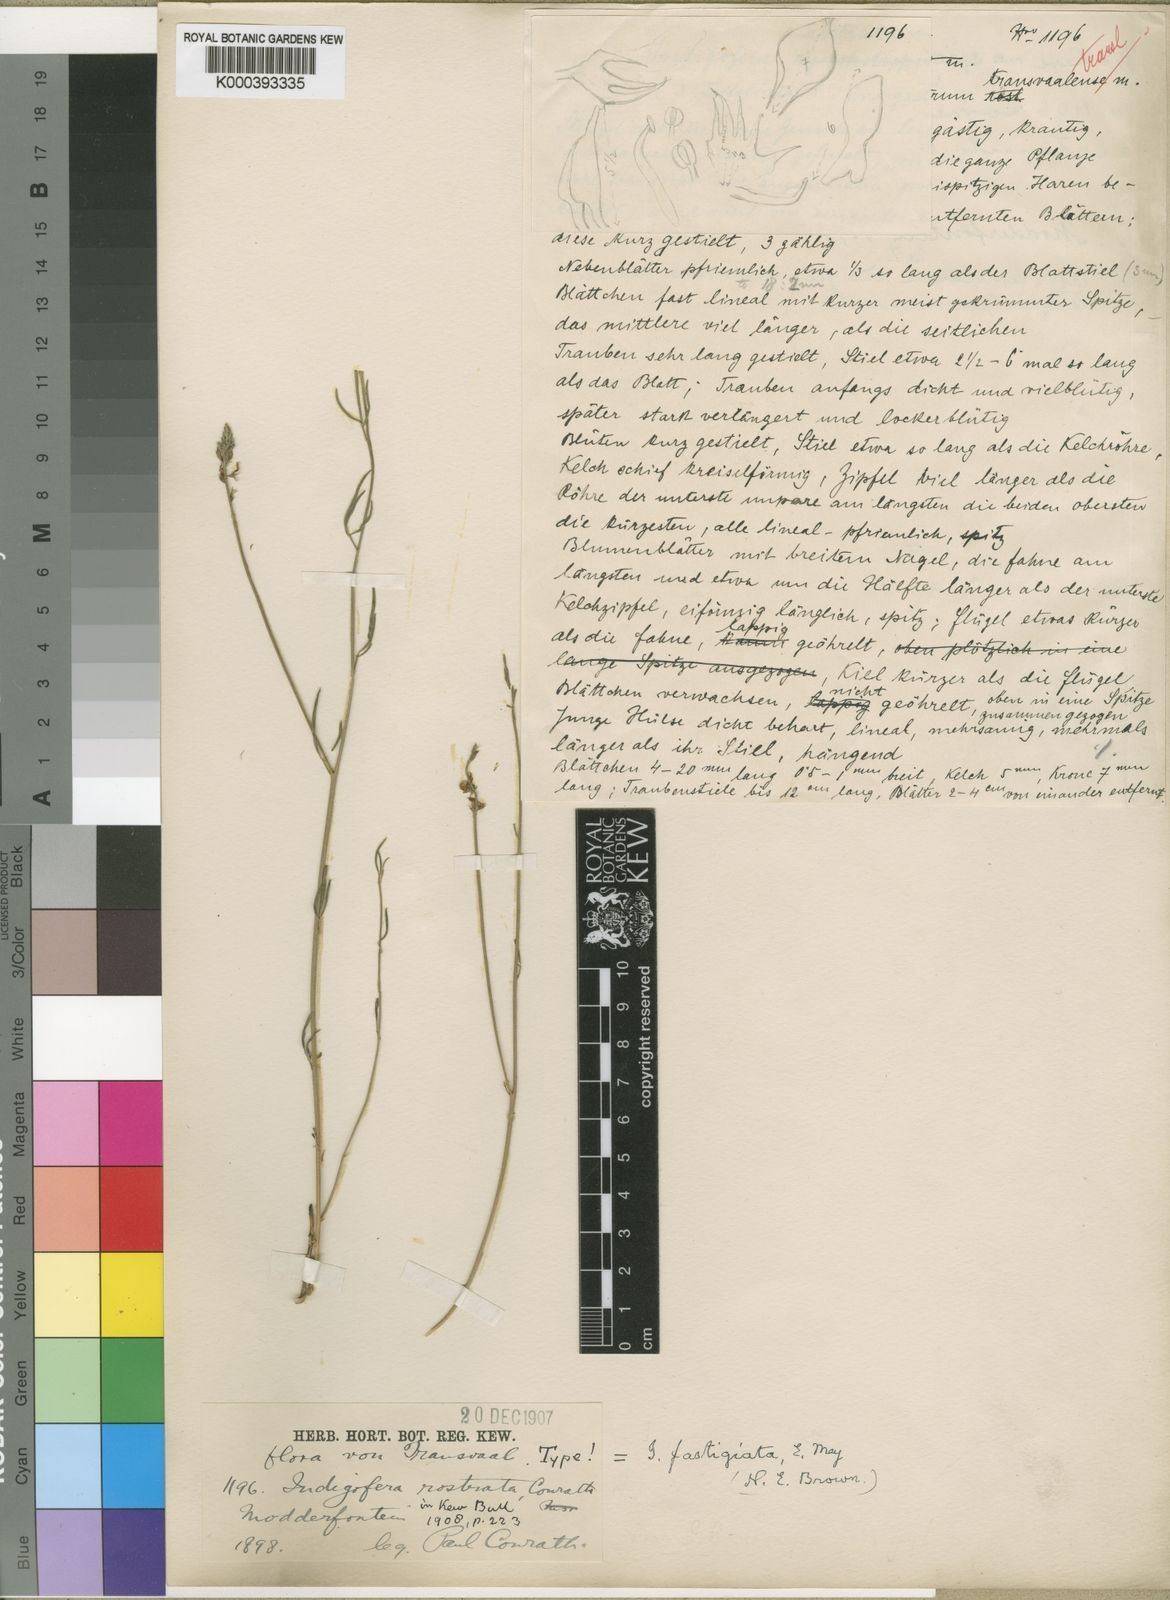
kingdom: Plantae
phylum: Tracheophyta
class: Magnoliopsida
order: Fabales
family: Fabaceae
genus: Indigastrum
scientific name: Indigastrum fastigiatum
